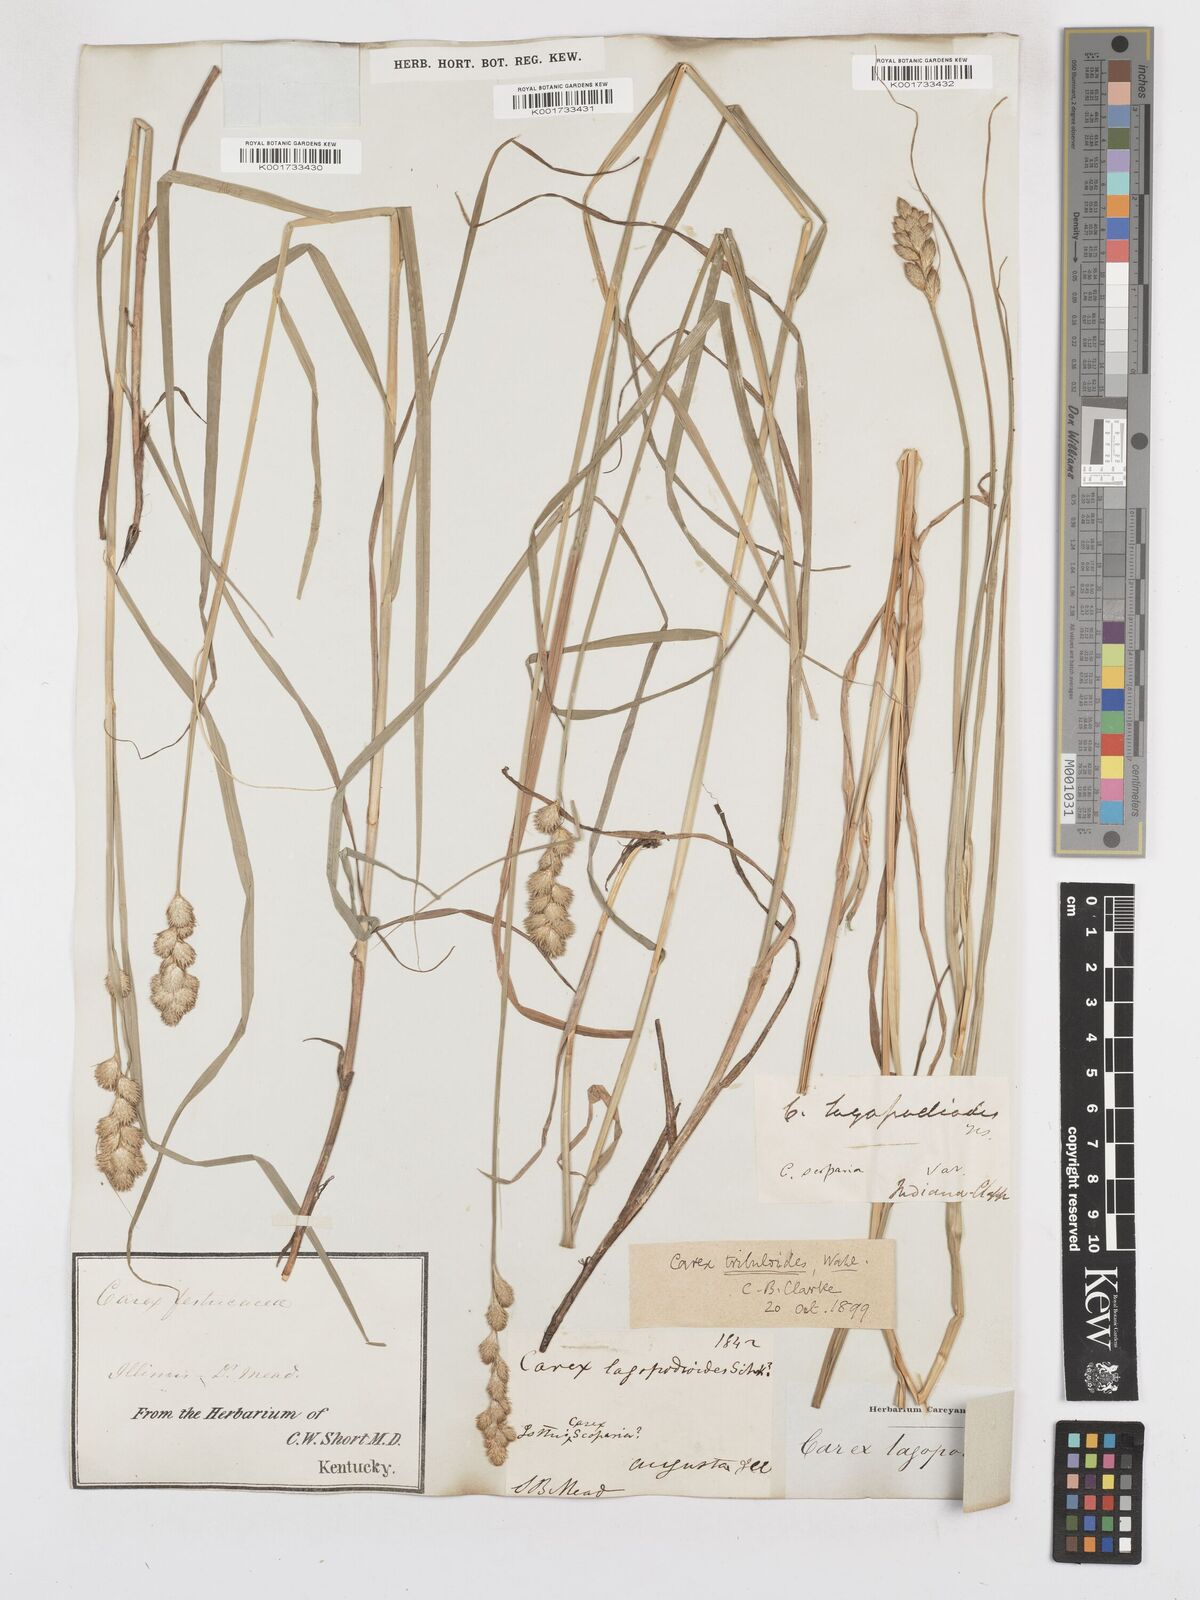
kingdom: Plantae
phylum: Tracheophyta
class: Liliopsida
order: Poales
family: Cyperaceae
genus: Carex
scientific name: Carex tribuloides
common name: Blunt broom sedge
